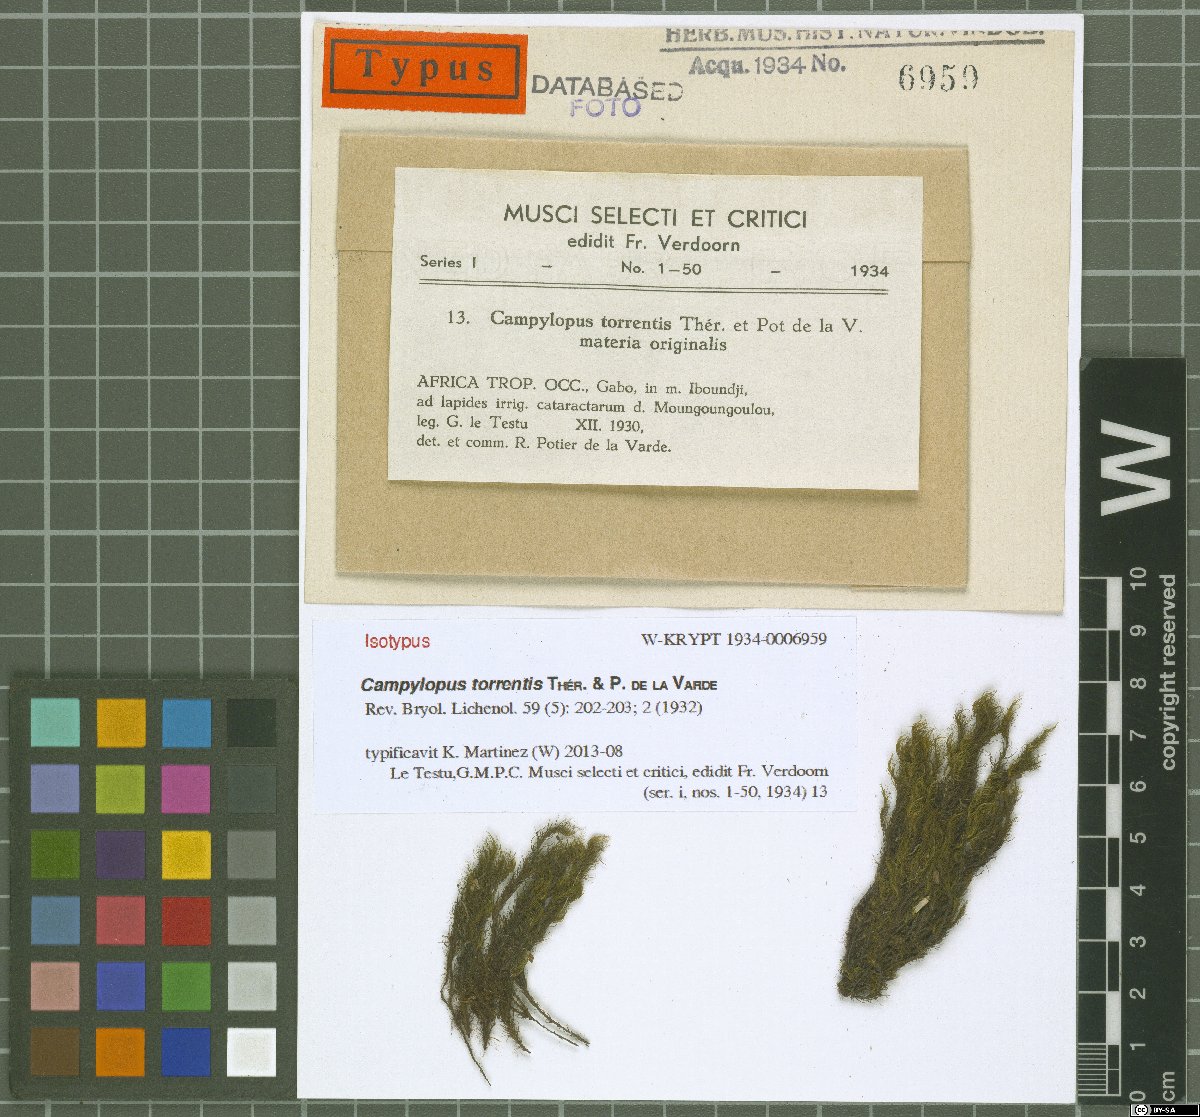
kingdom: Plantae
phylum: Bryophyta
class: Bryopsida
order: Dicranales
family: Leucobryaceae
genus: Campylopus
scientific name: Campylopus torrentis
